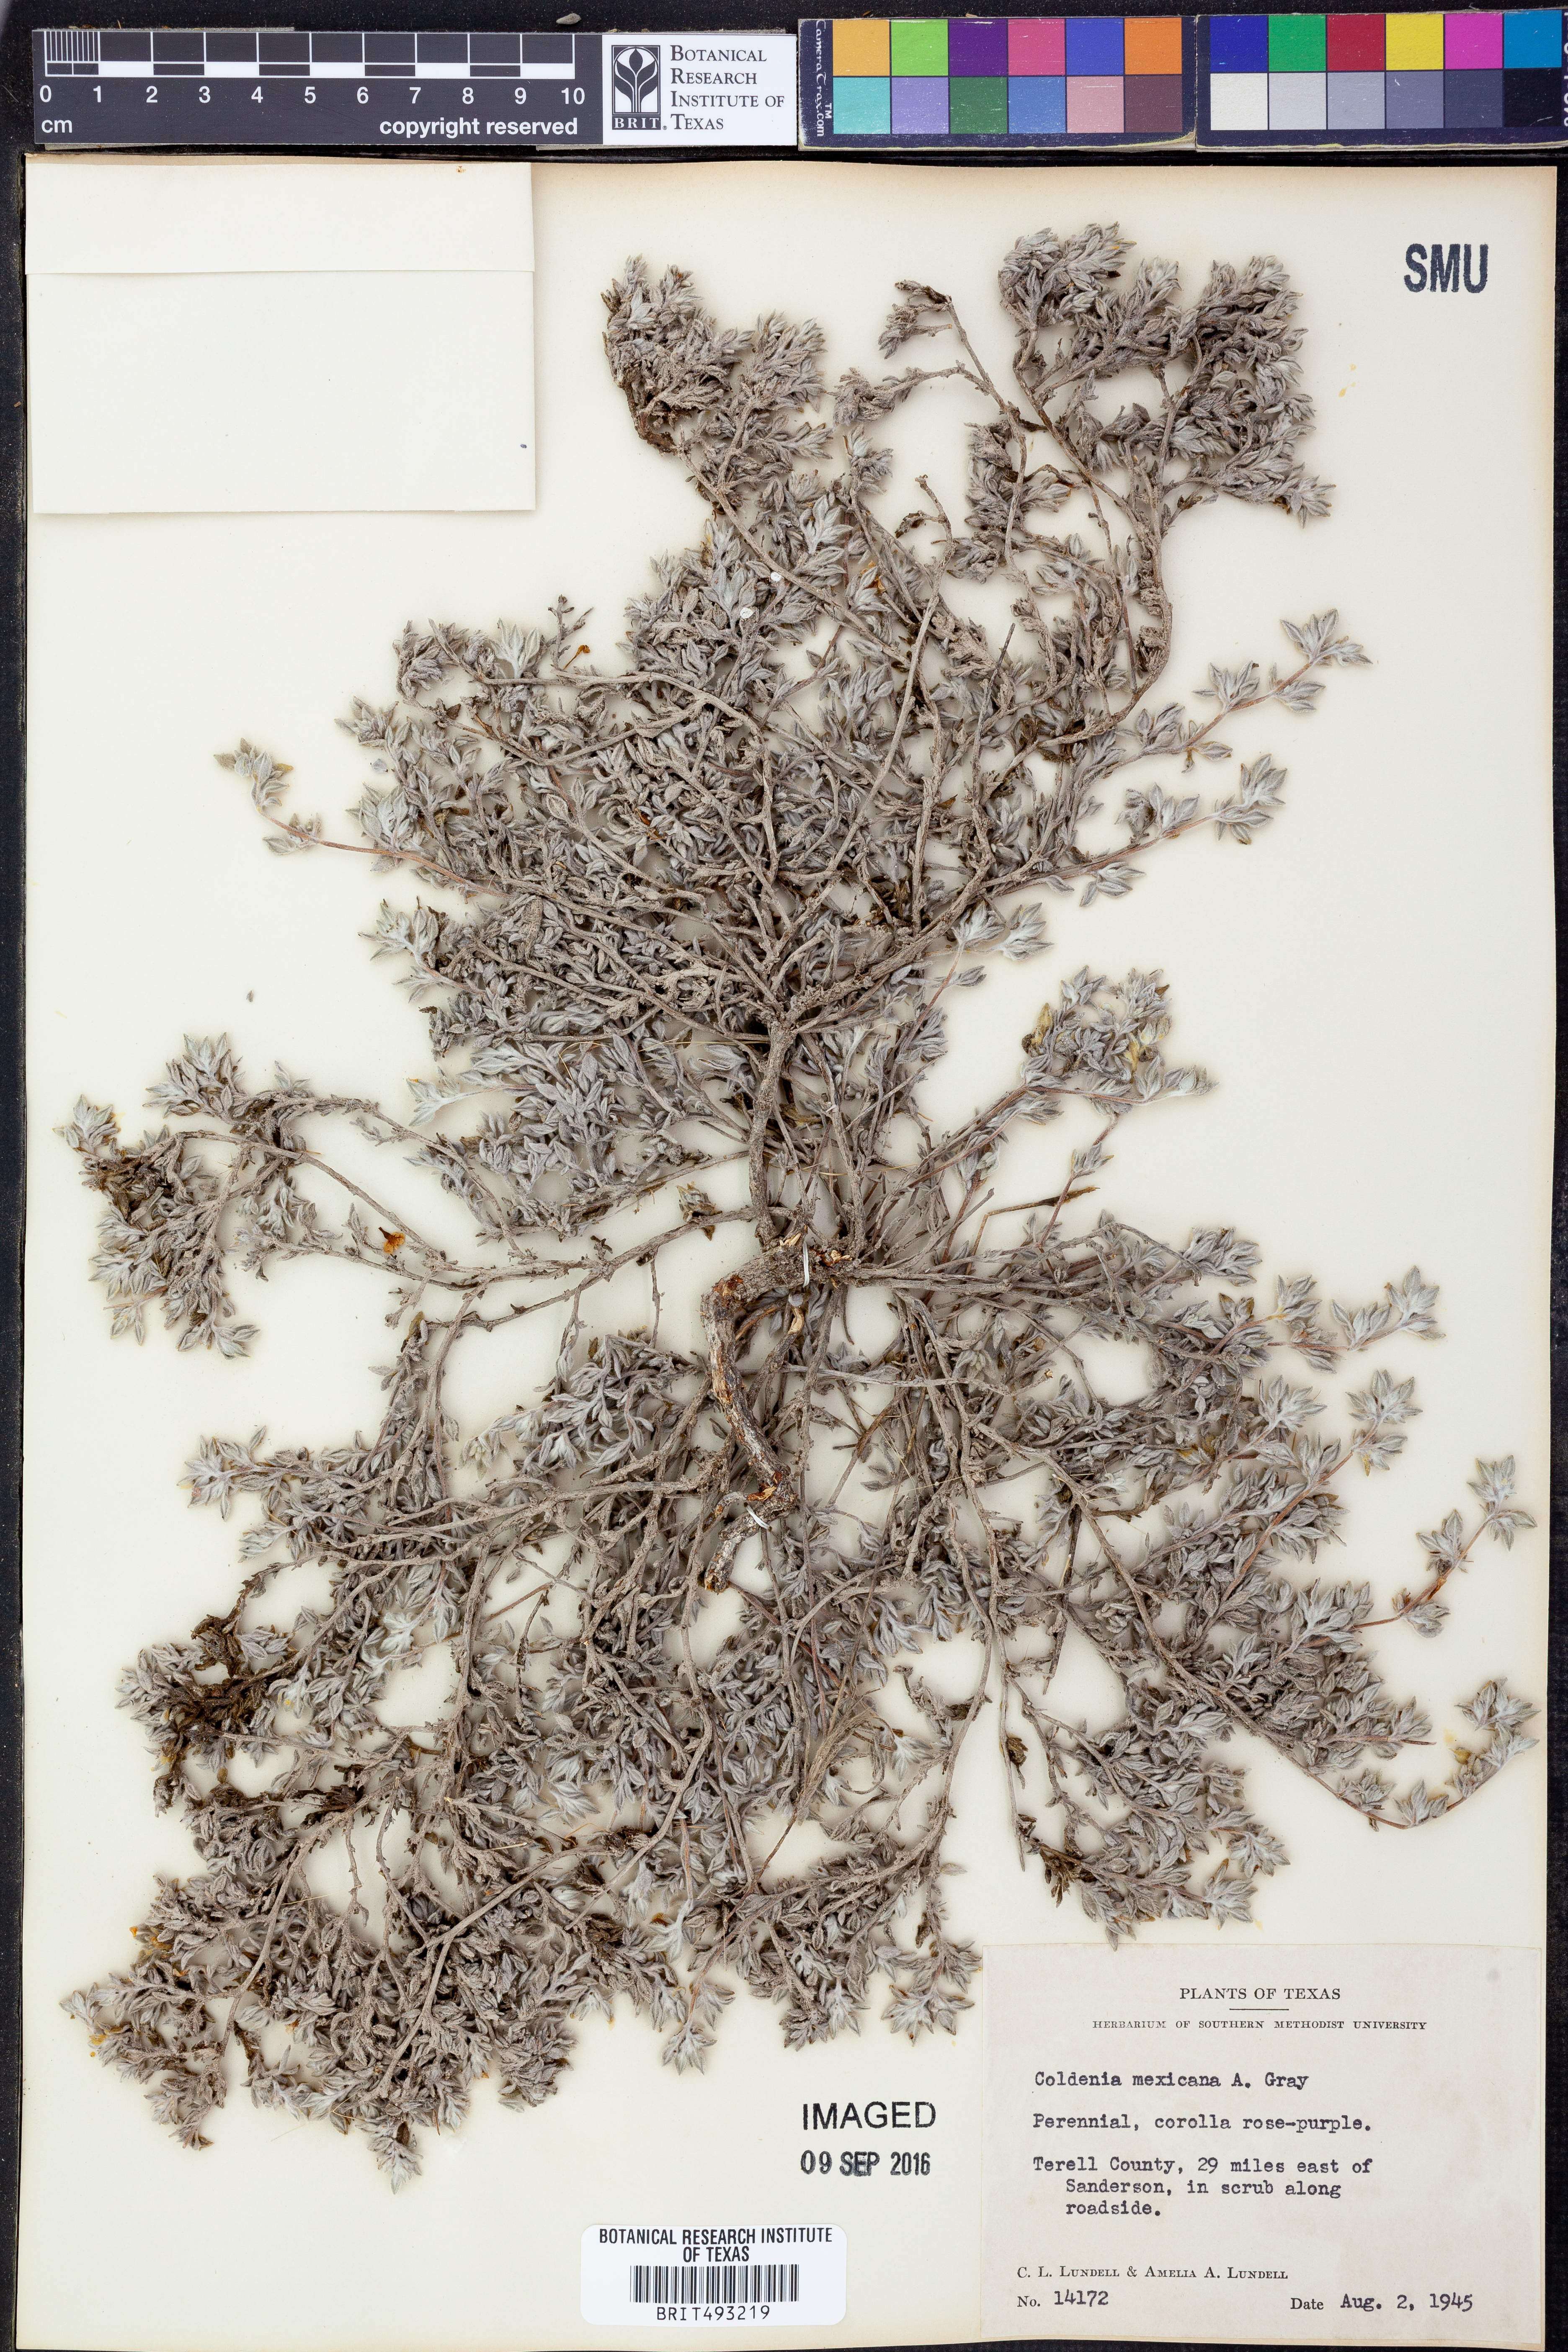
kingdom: Plantae
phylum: Tracheophyta
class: Magnoliopsida
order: Boraginales
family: Ehretiaceae
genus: Tiquilia
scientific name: Tiquilia mexicana
